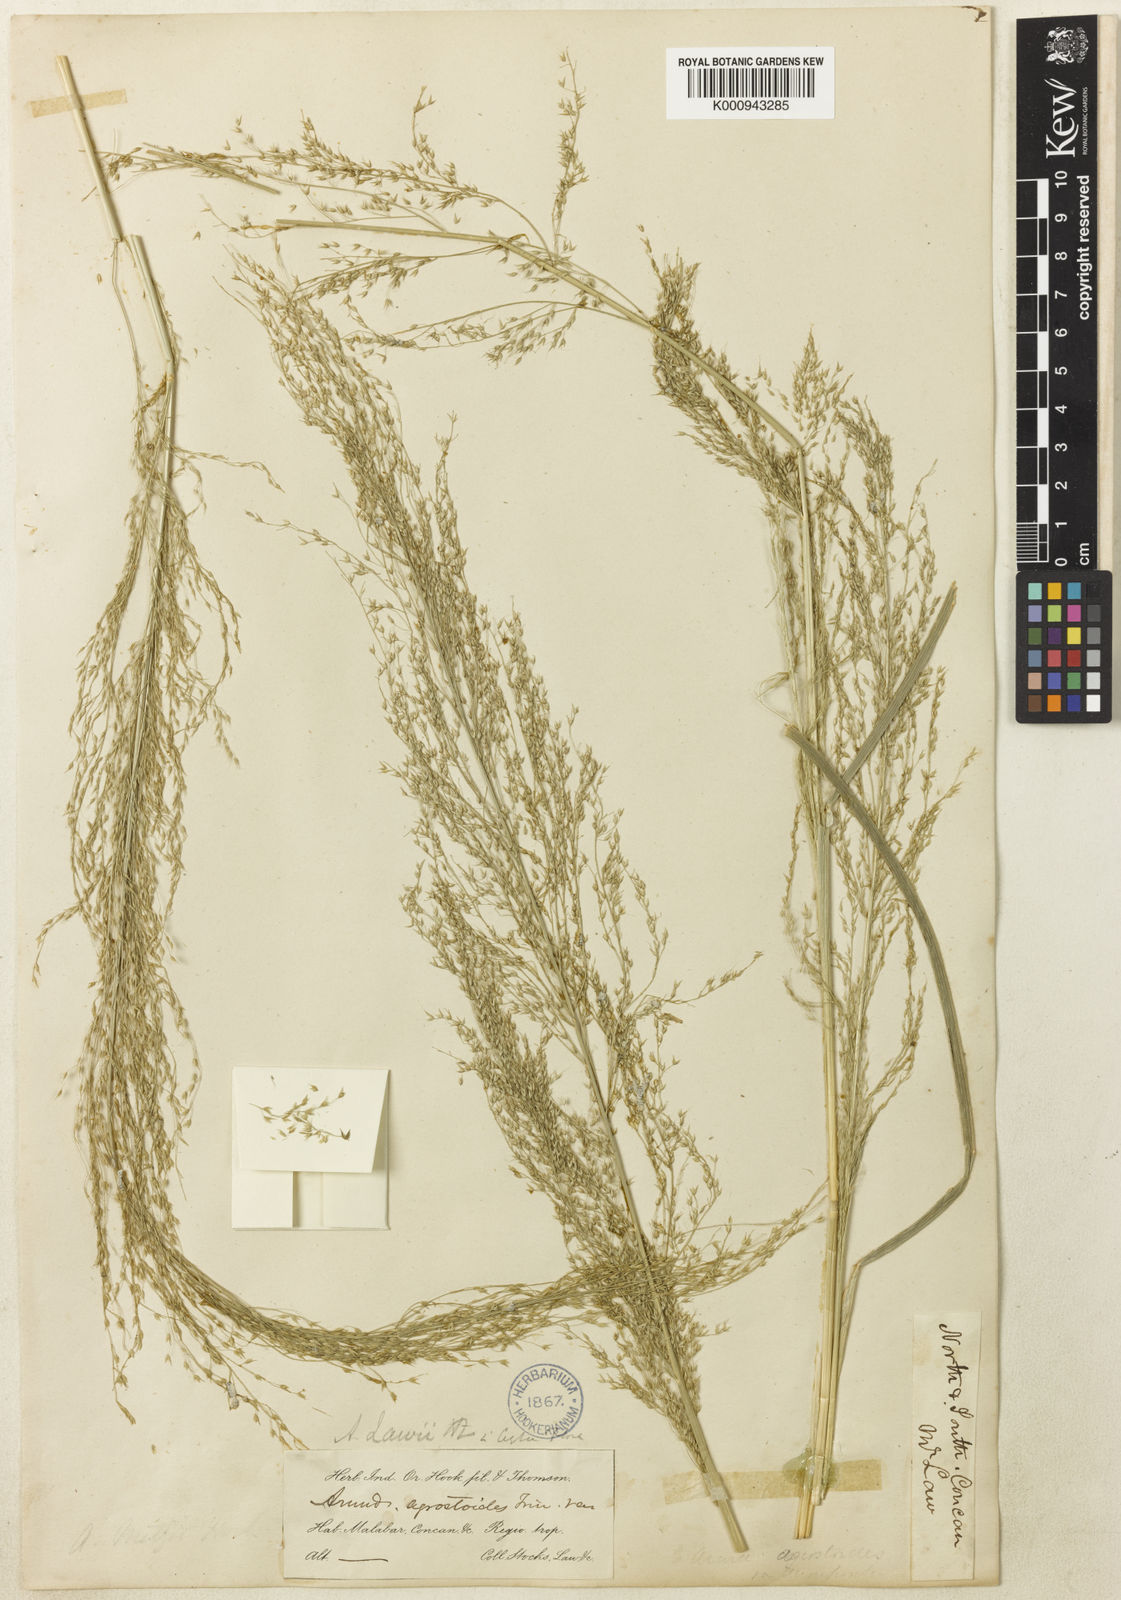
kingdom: Plantae
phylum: Tracheophyta
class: Liliopsida
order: Poales
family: Poaceae
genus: Arundinella
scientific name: Arundinella metzii
